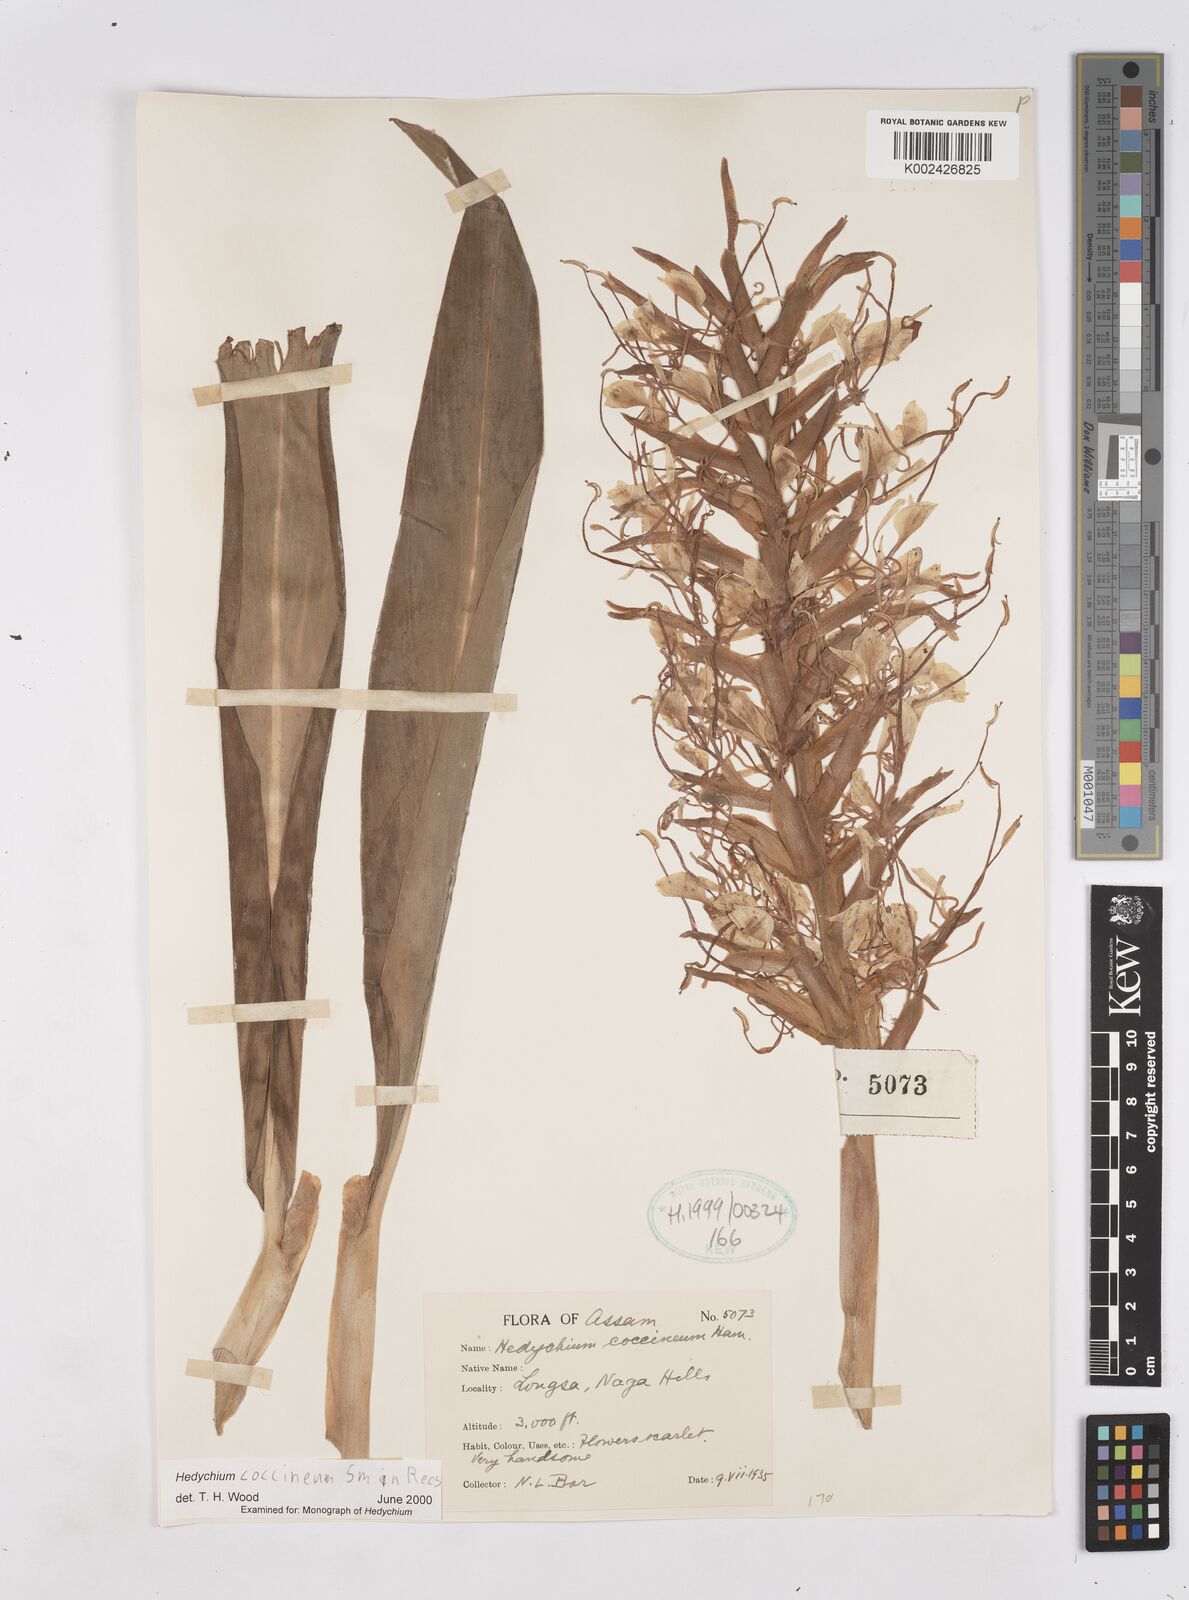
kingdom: Plantae
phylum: Tracheophyta
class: Liliopsida
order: Zingiberales
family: Zingiberaceae
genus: Hedychium
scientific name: Hedychium coccineum
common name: Red ginger-lily
